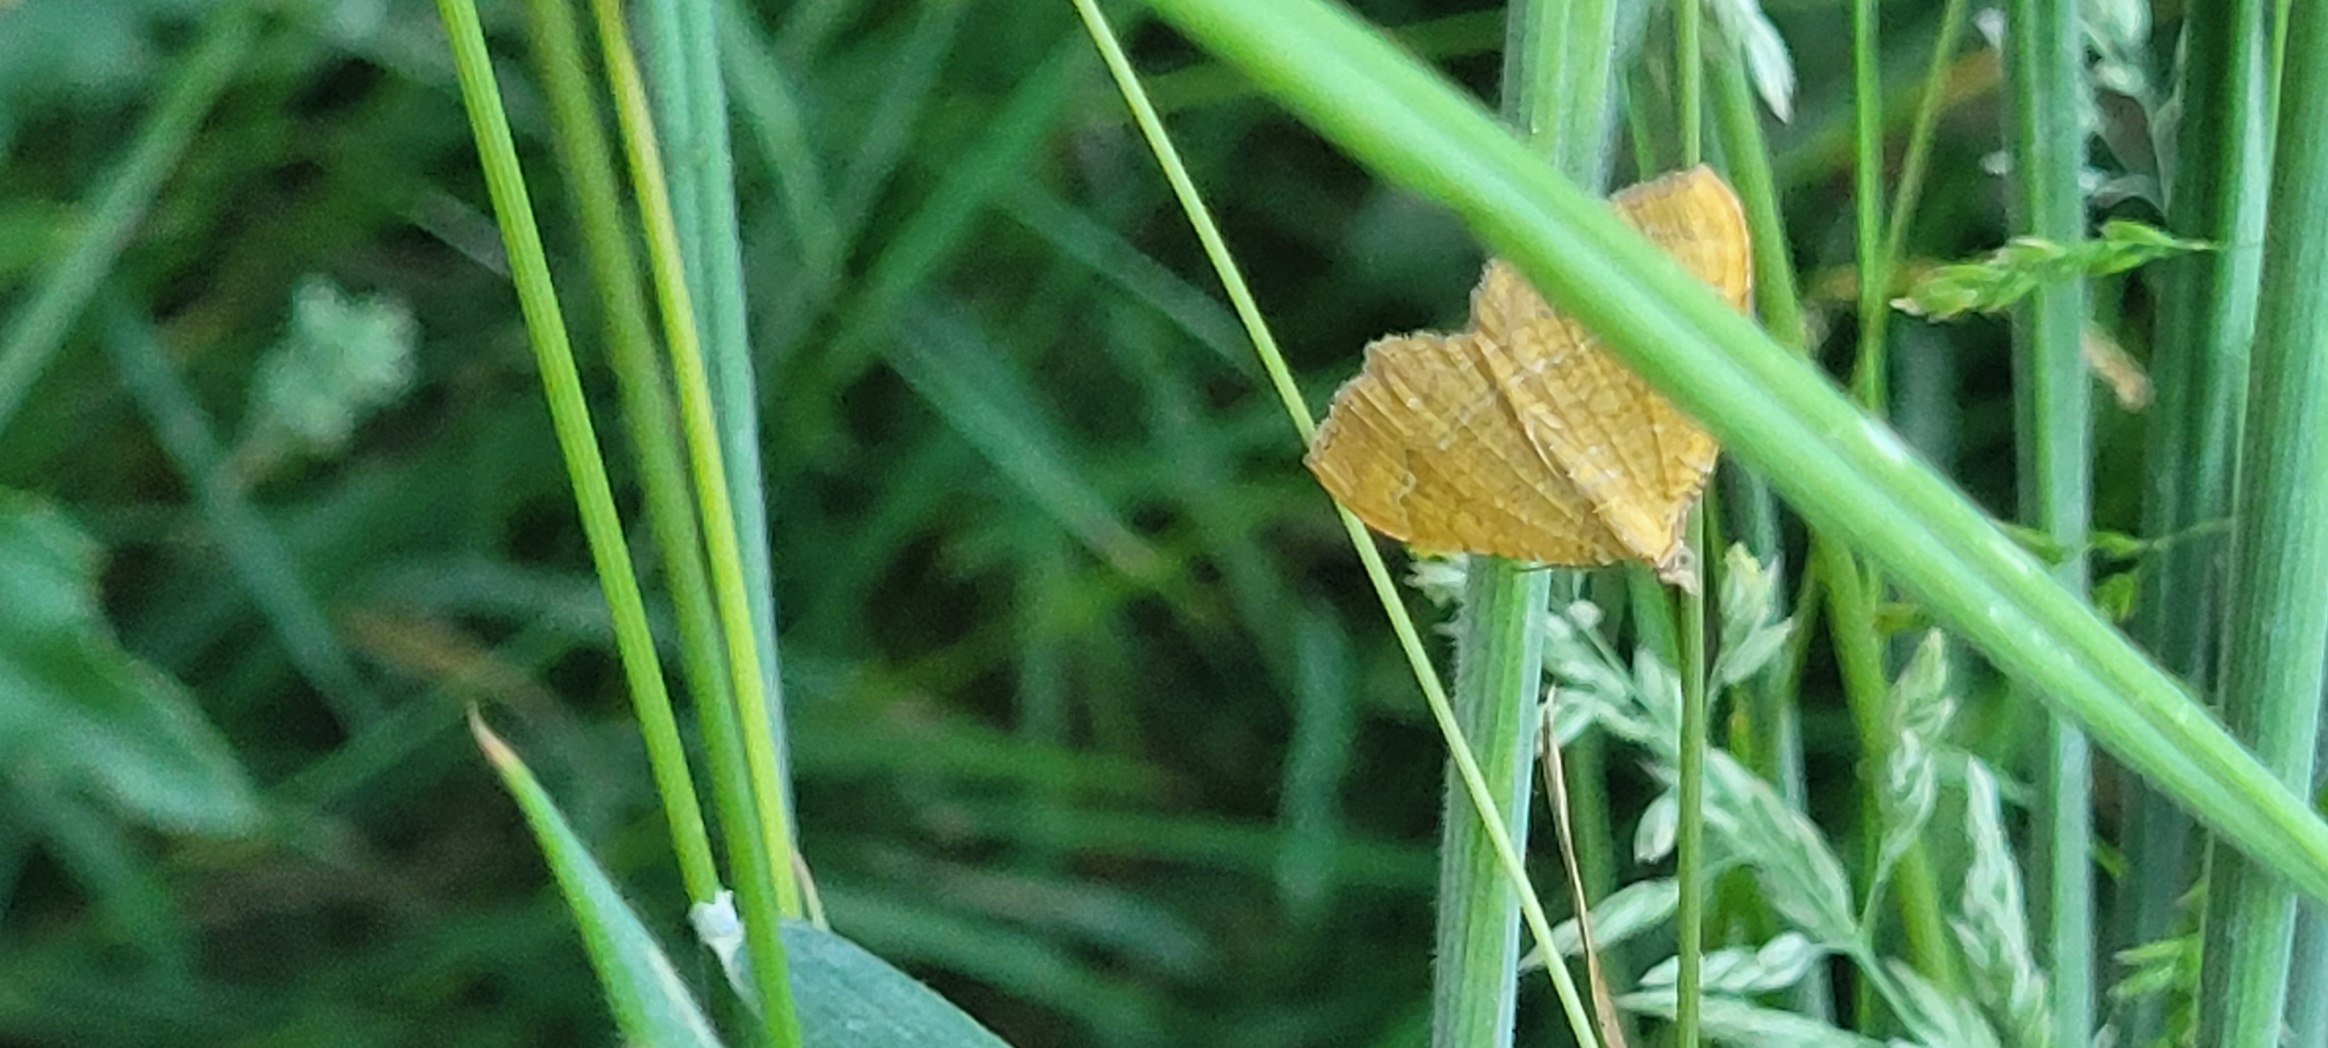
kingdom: Animalia
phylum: Arthropoda
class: Insecta
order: Lepidoptera
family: Geometridae
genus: Camptogramma
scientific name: Camptogramma bilineata
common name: Okkergul bladmåler
